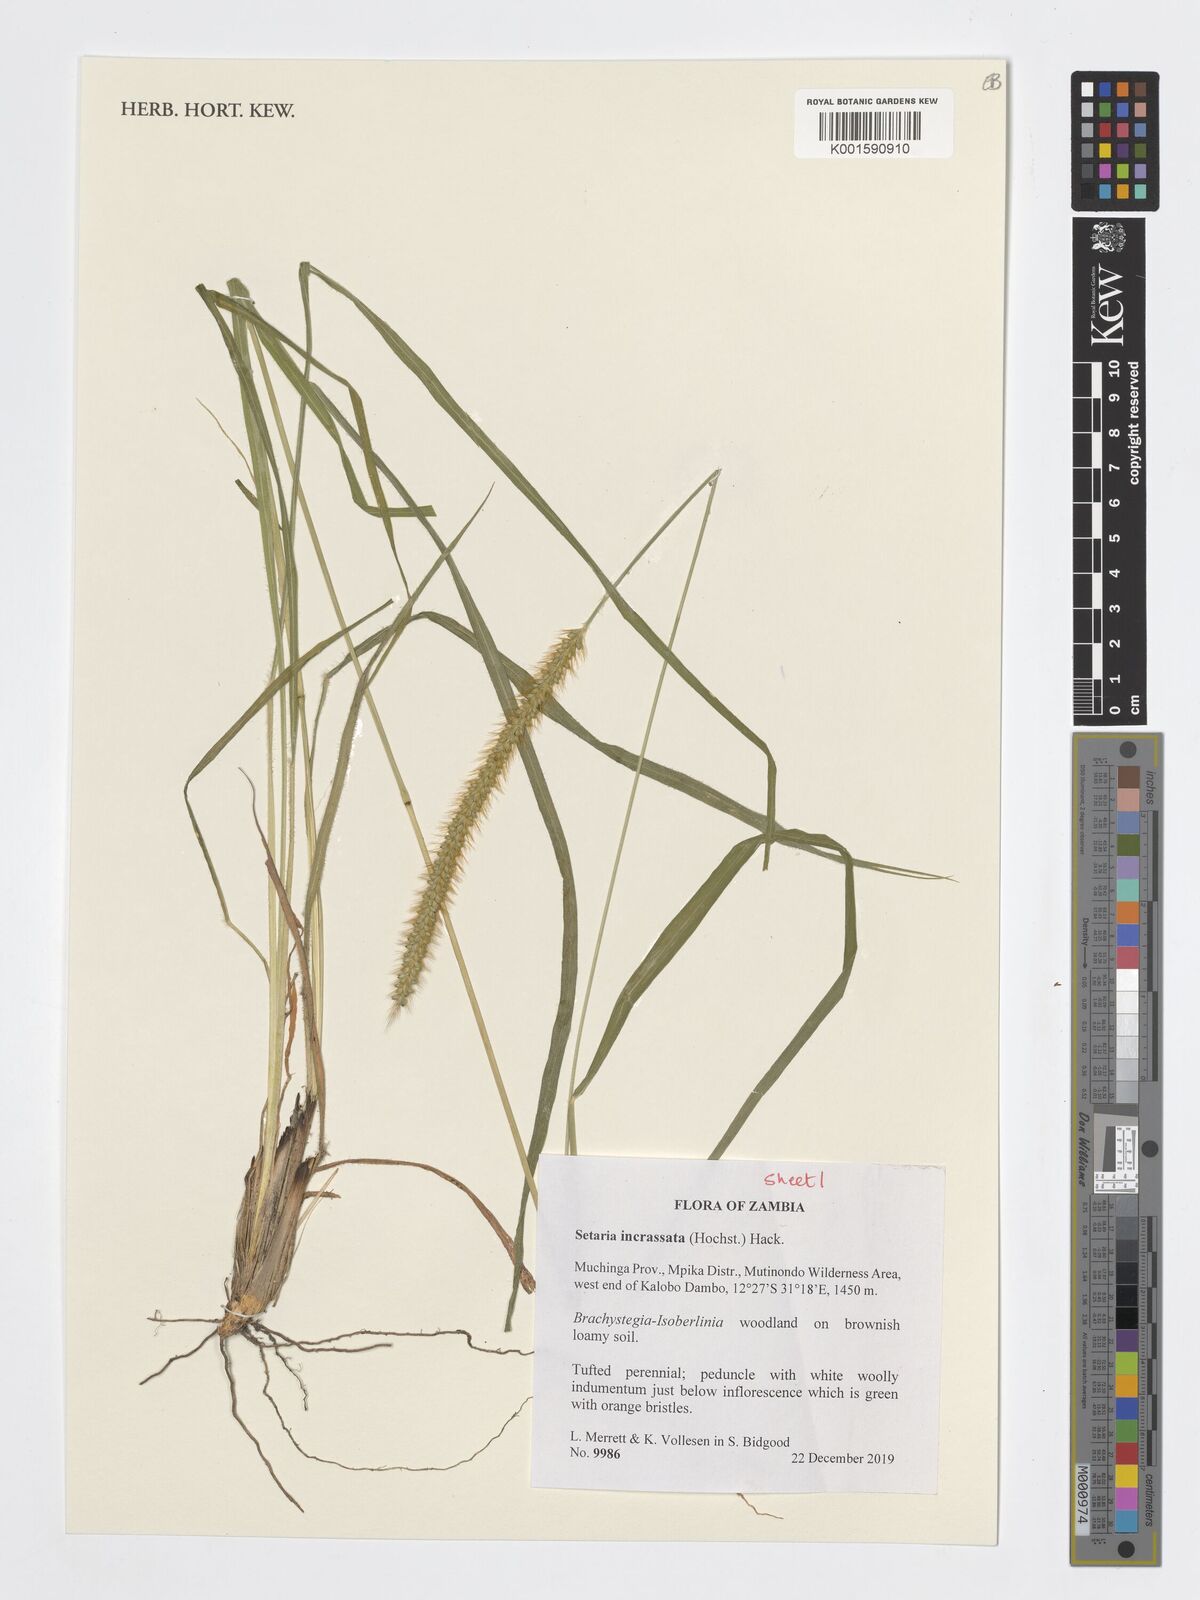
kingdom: Plantae
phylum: Tracheophyta
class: Liliopsida
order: Poales
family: Poaceae
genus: Setaria
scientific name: Setaria incrassata
